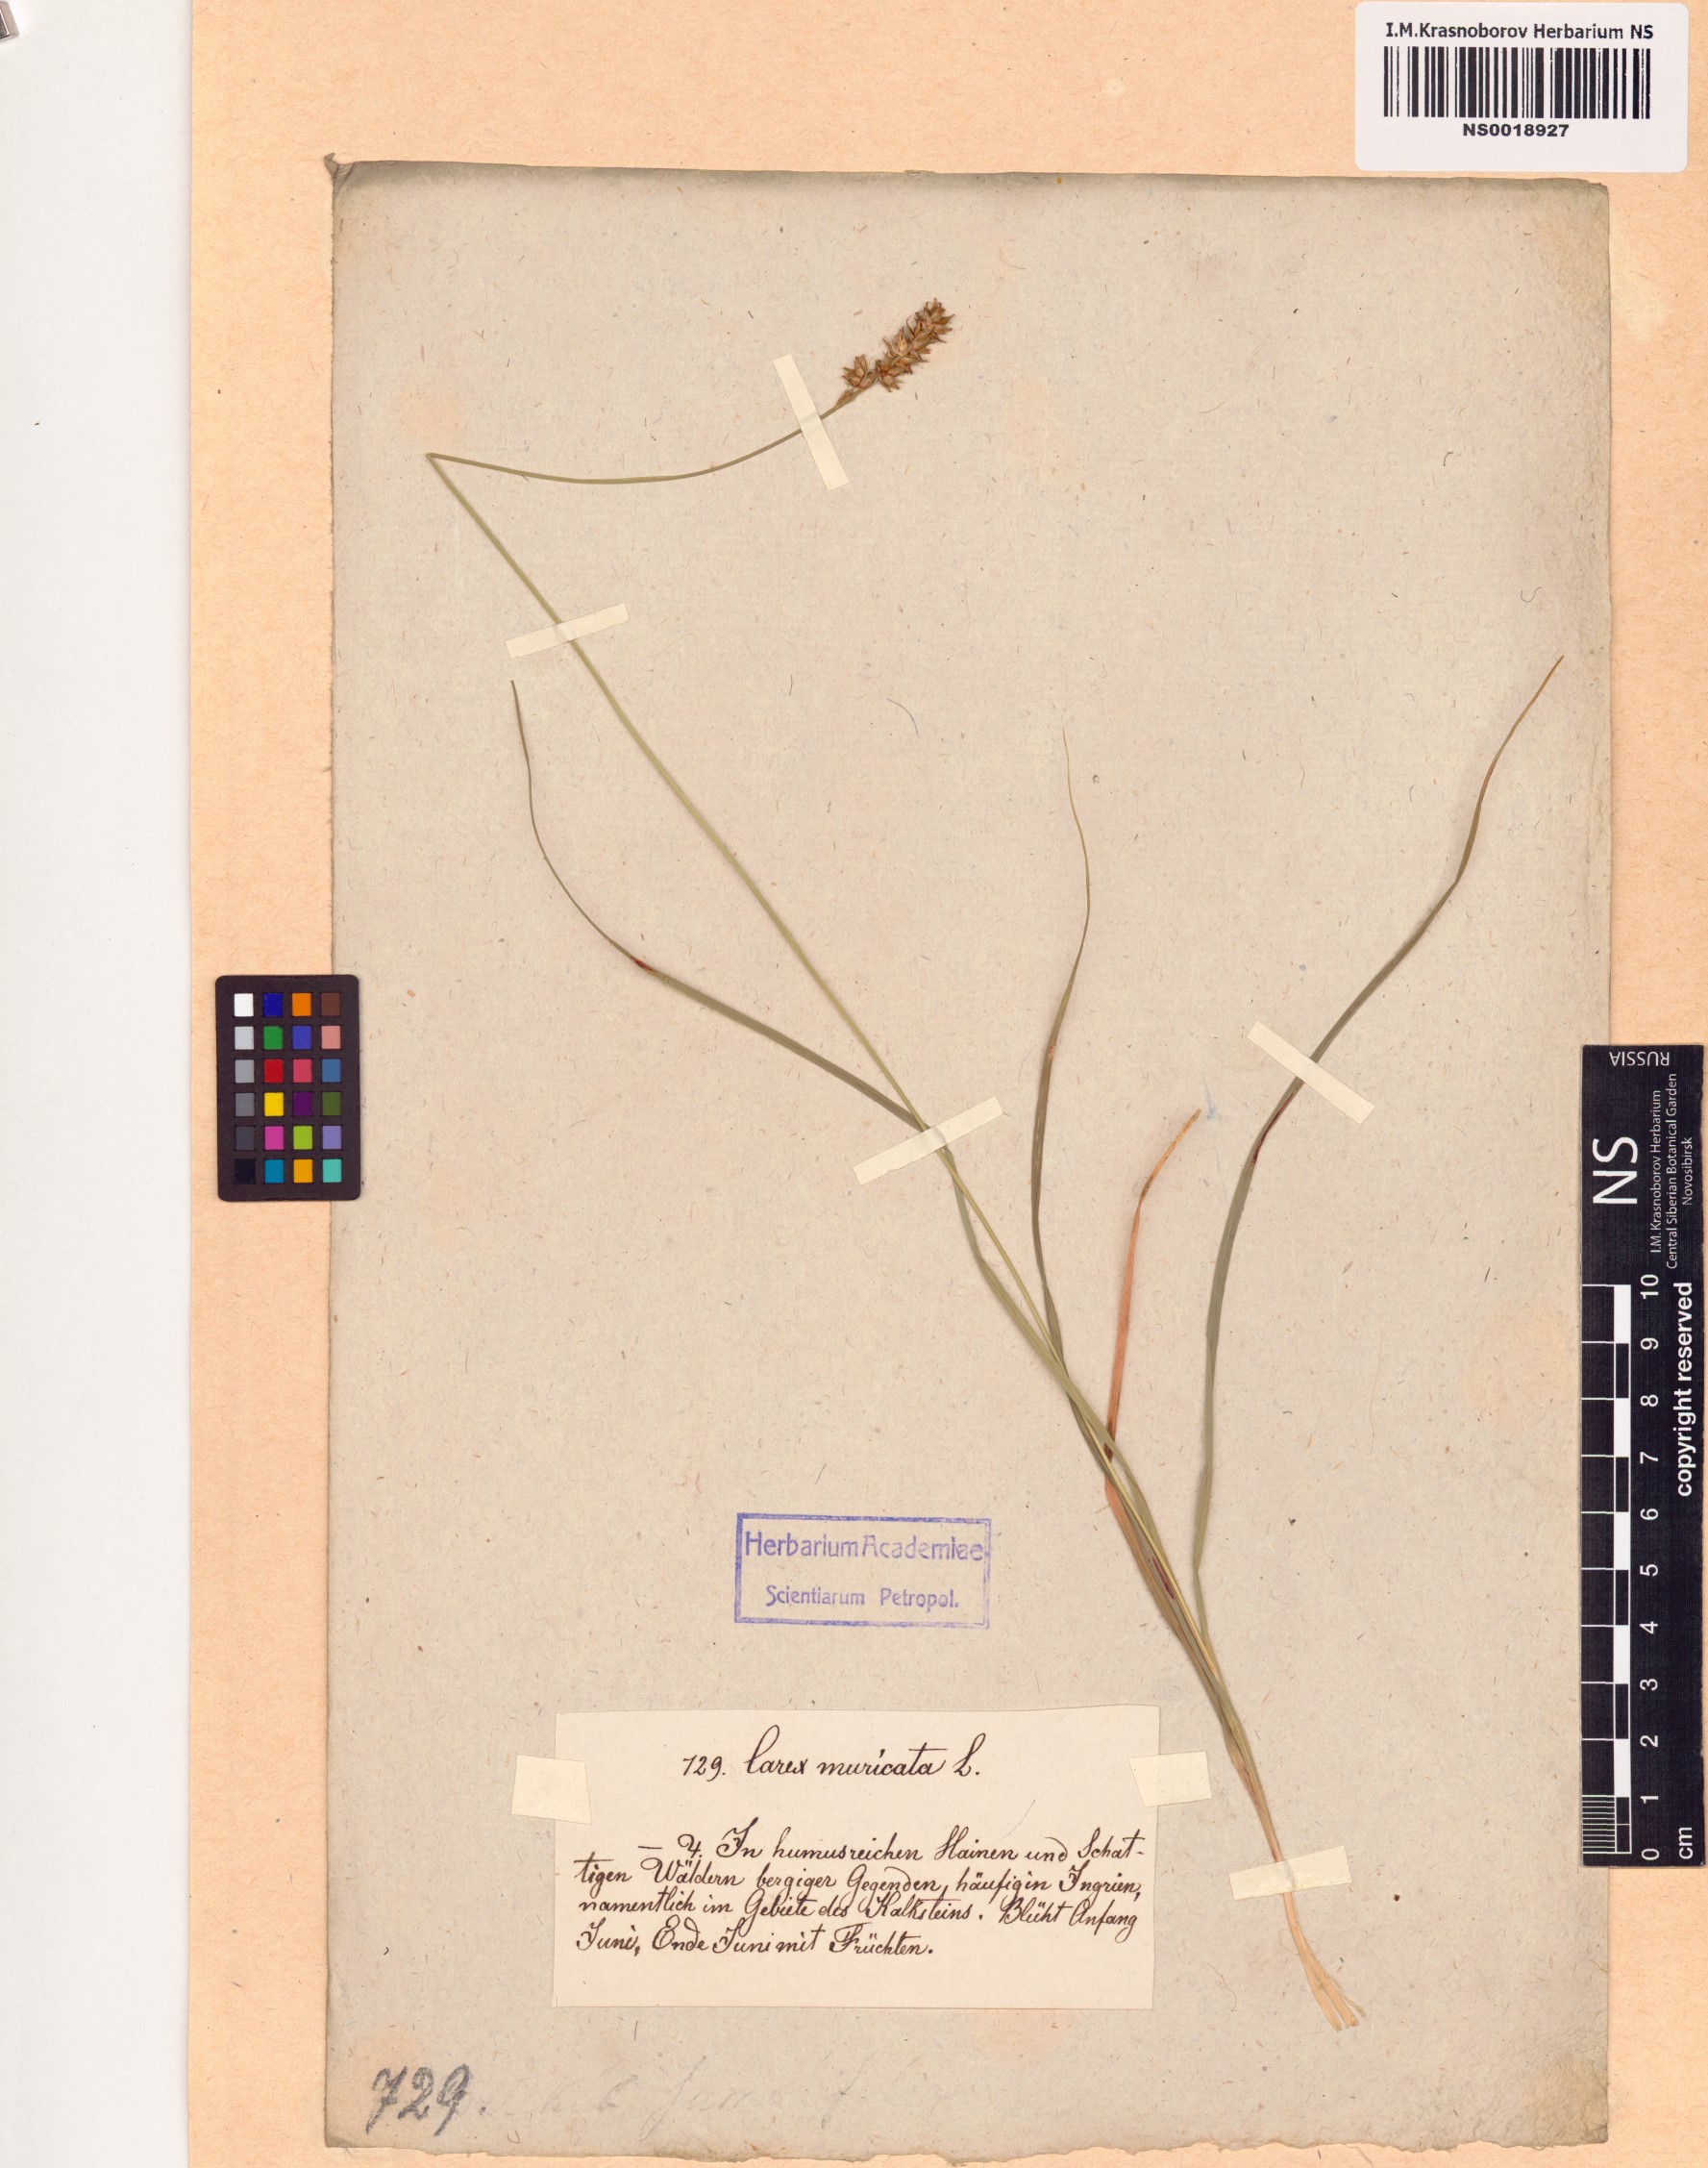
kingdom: Plantae
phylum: Tracheophyta
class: Liliopsida
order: Poales
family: Cyperaceae
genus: Carex
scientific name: Carex muricata
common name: Rough sedge
